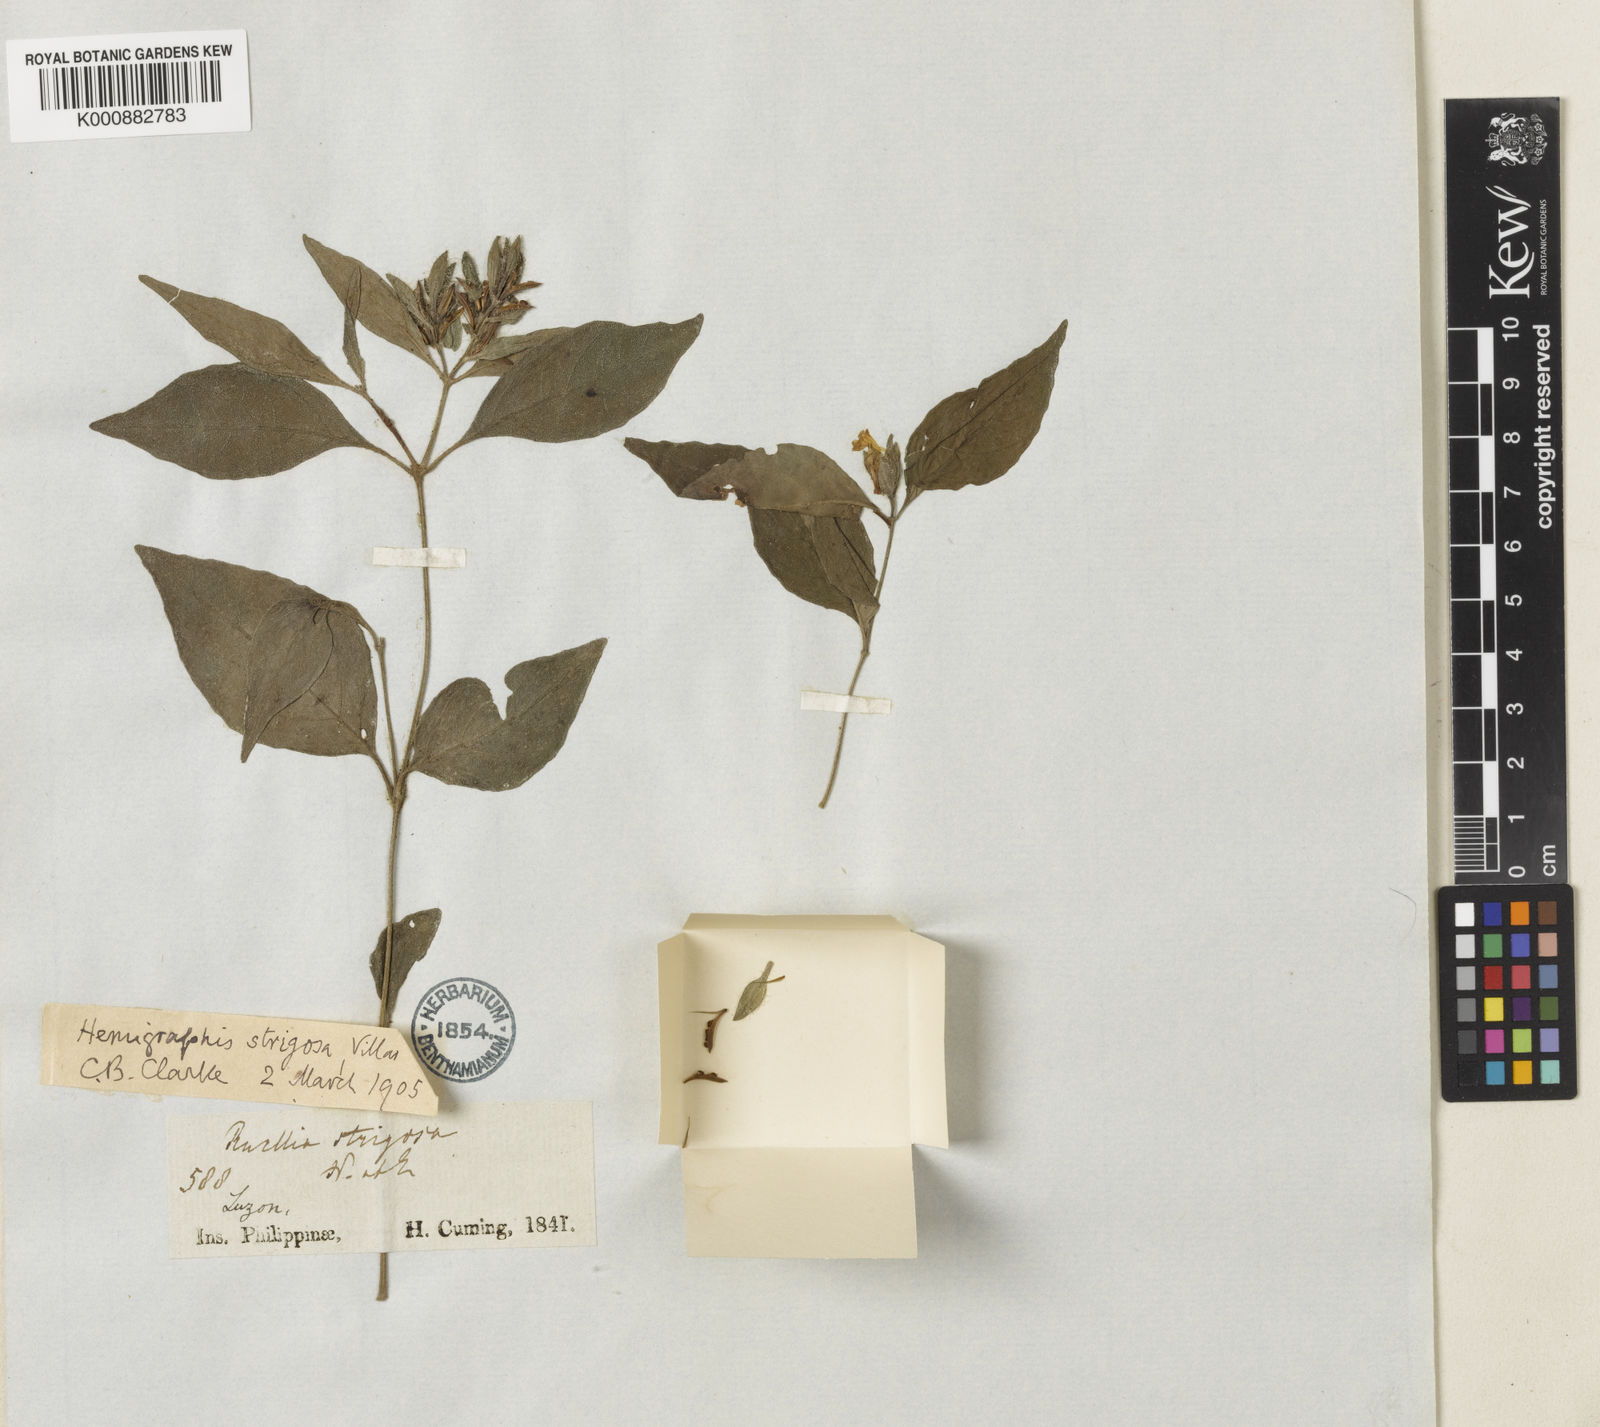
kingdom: Plantae
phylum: Tracheophyta
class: Magnoliopsida
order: Lamiales
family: Acanthaceae
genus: Strobilanthes
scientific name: Strobilanthes cumingiana
